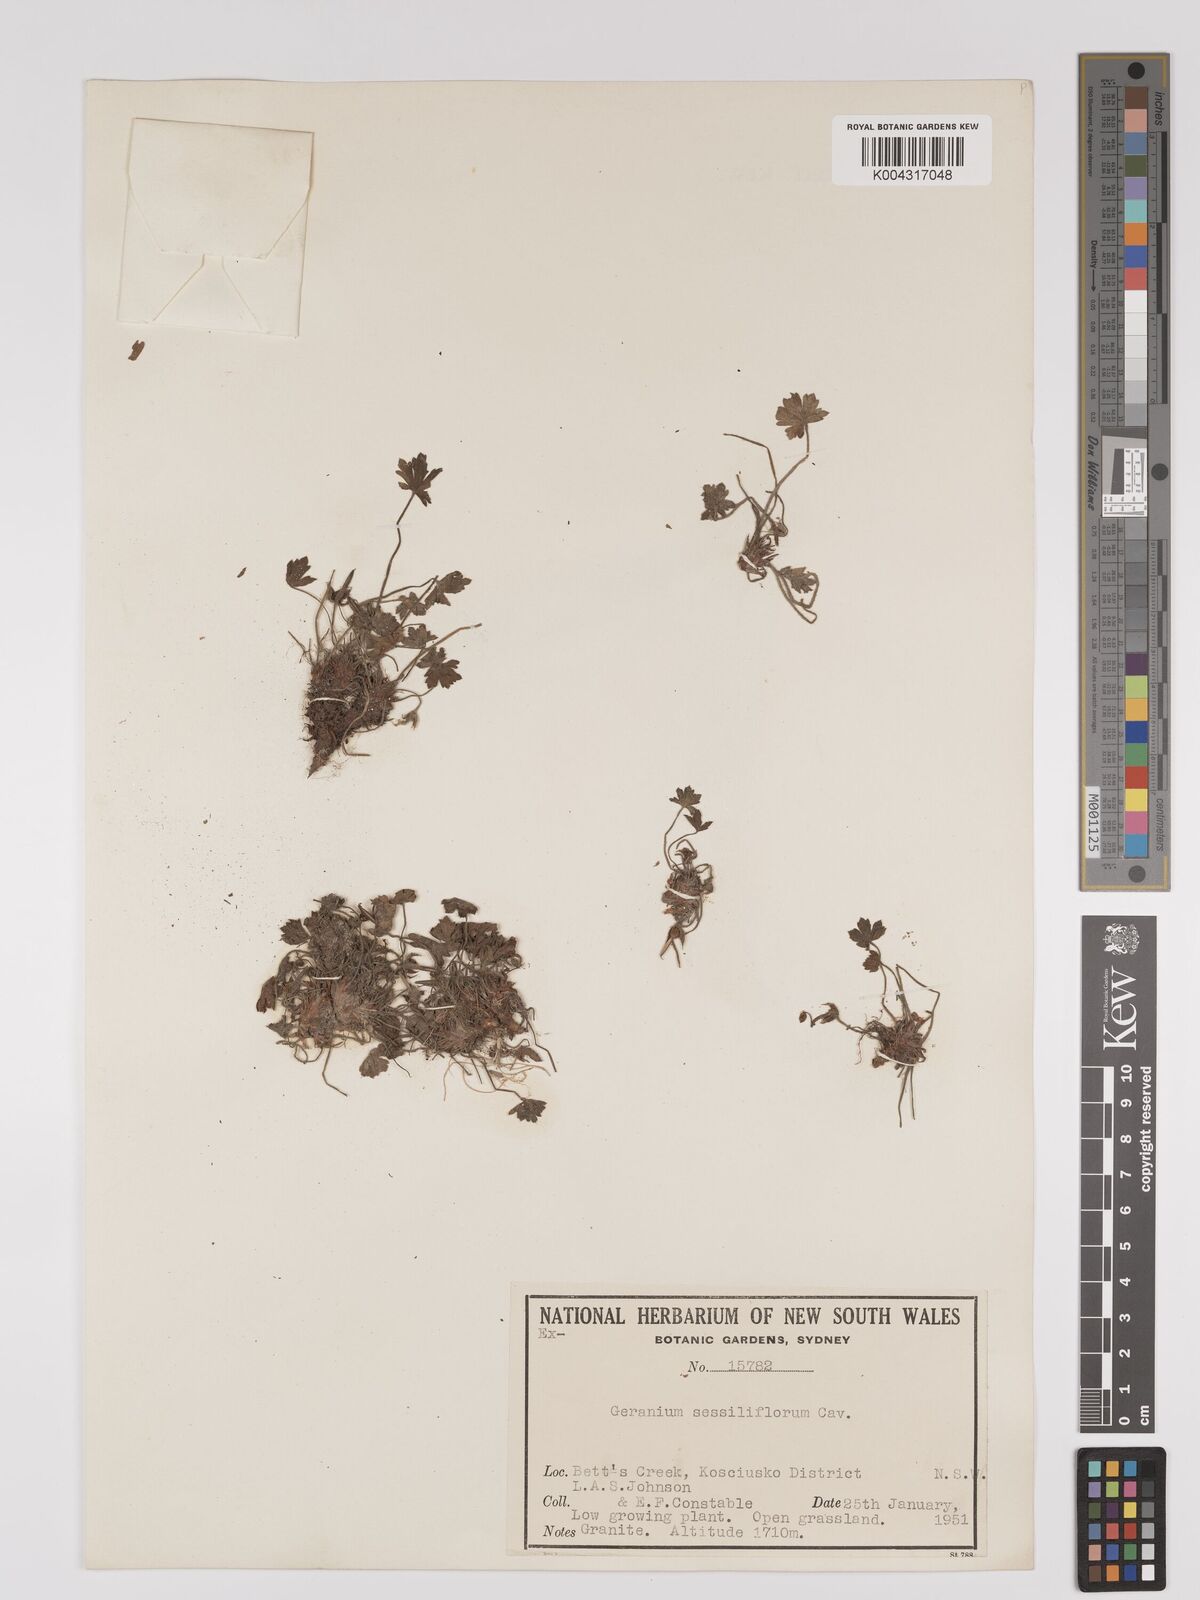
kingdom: Plantae
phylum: Tracheophyta
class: Magnoliopsida
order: Geraniales
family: Geraniaceae
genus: Geranium
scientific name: Geranium sessiliflorum
